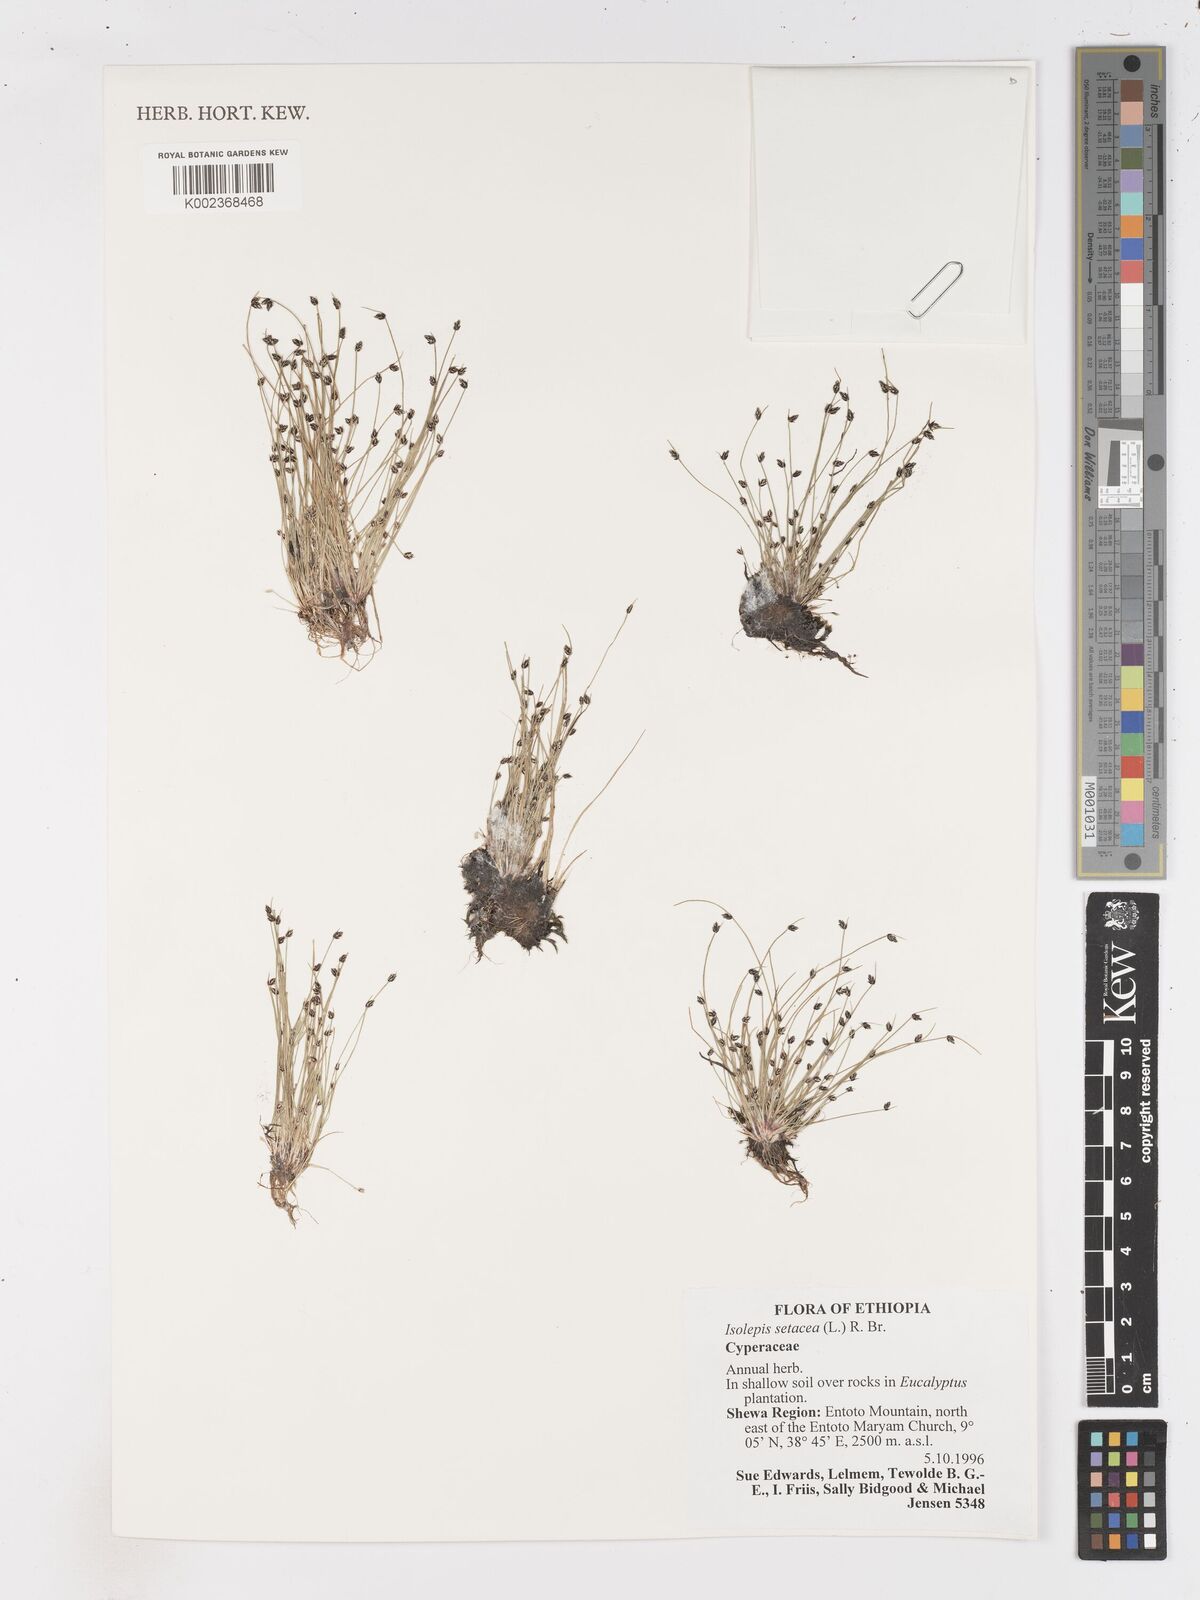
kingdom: Plantae
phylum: Tracheophyta
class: Liliopsida
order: Poales
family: Cyperaceae
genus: Isolepis
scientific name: Isolepis setacea
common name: Bristle club-rush
